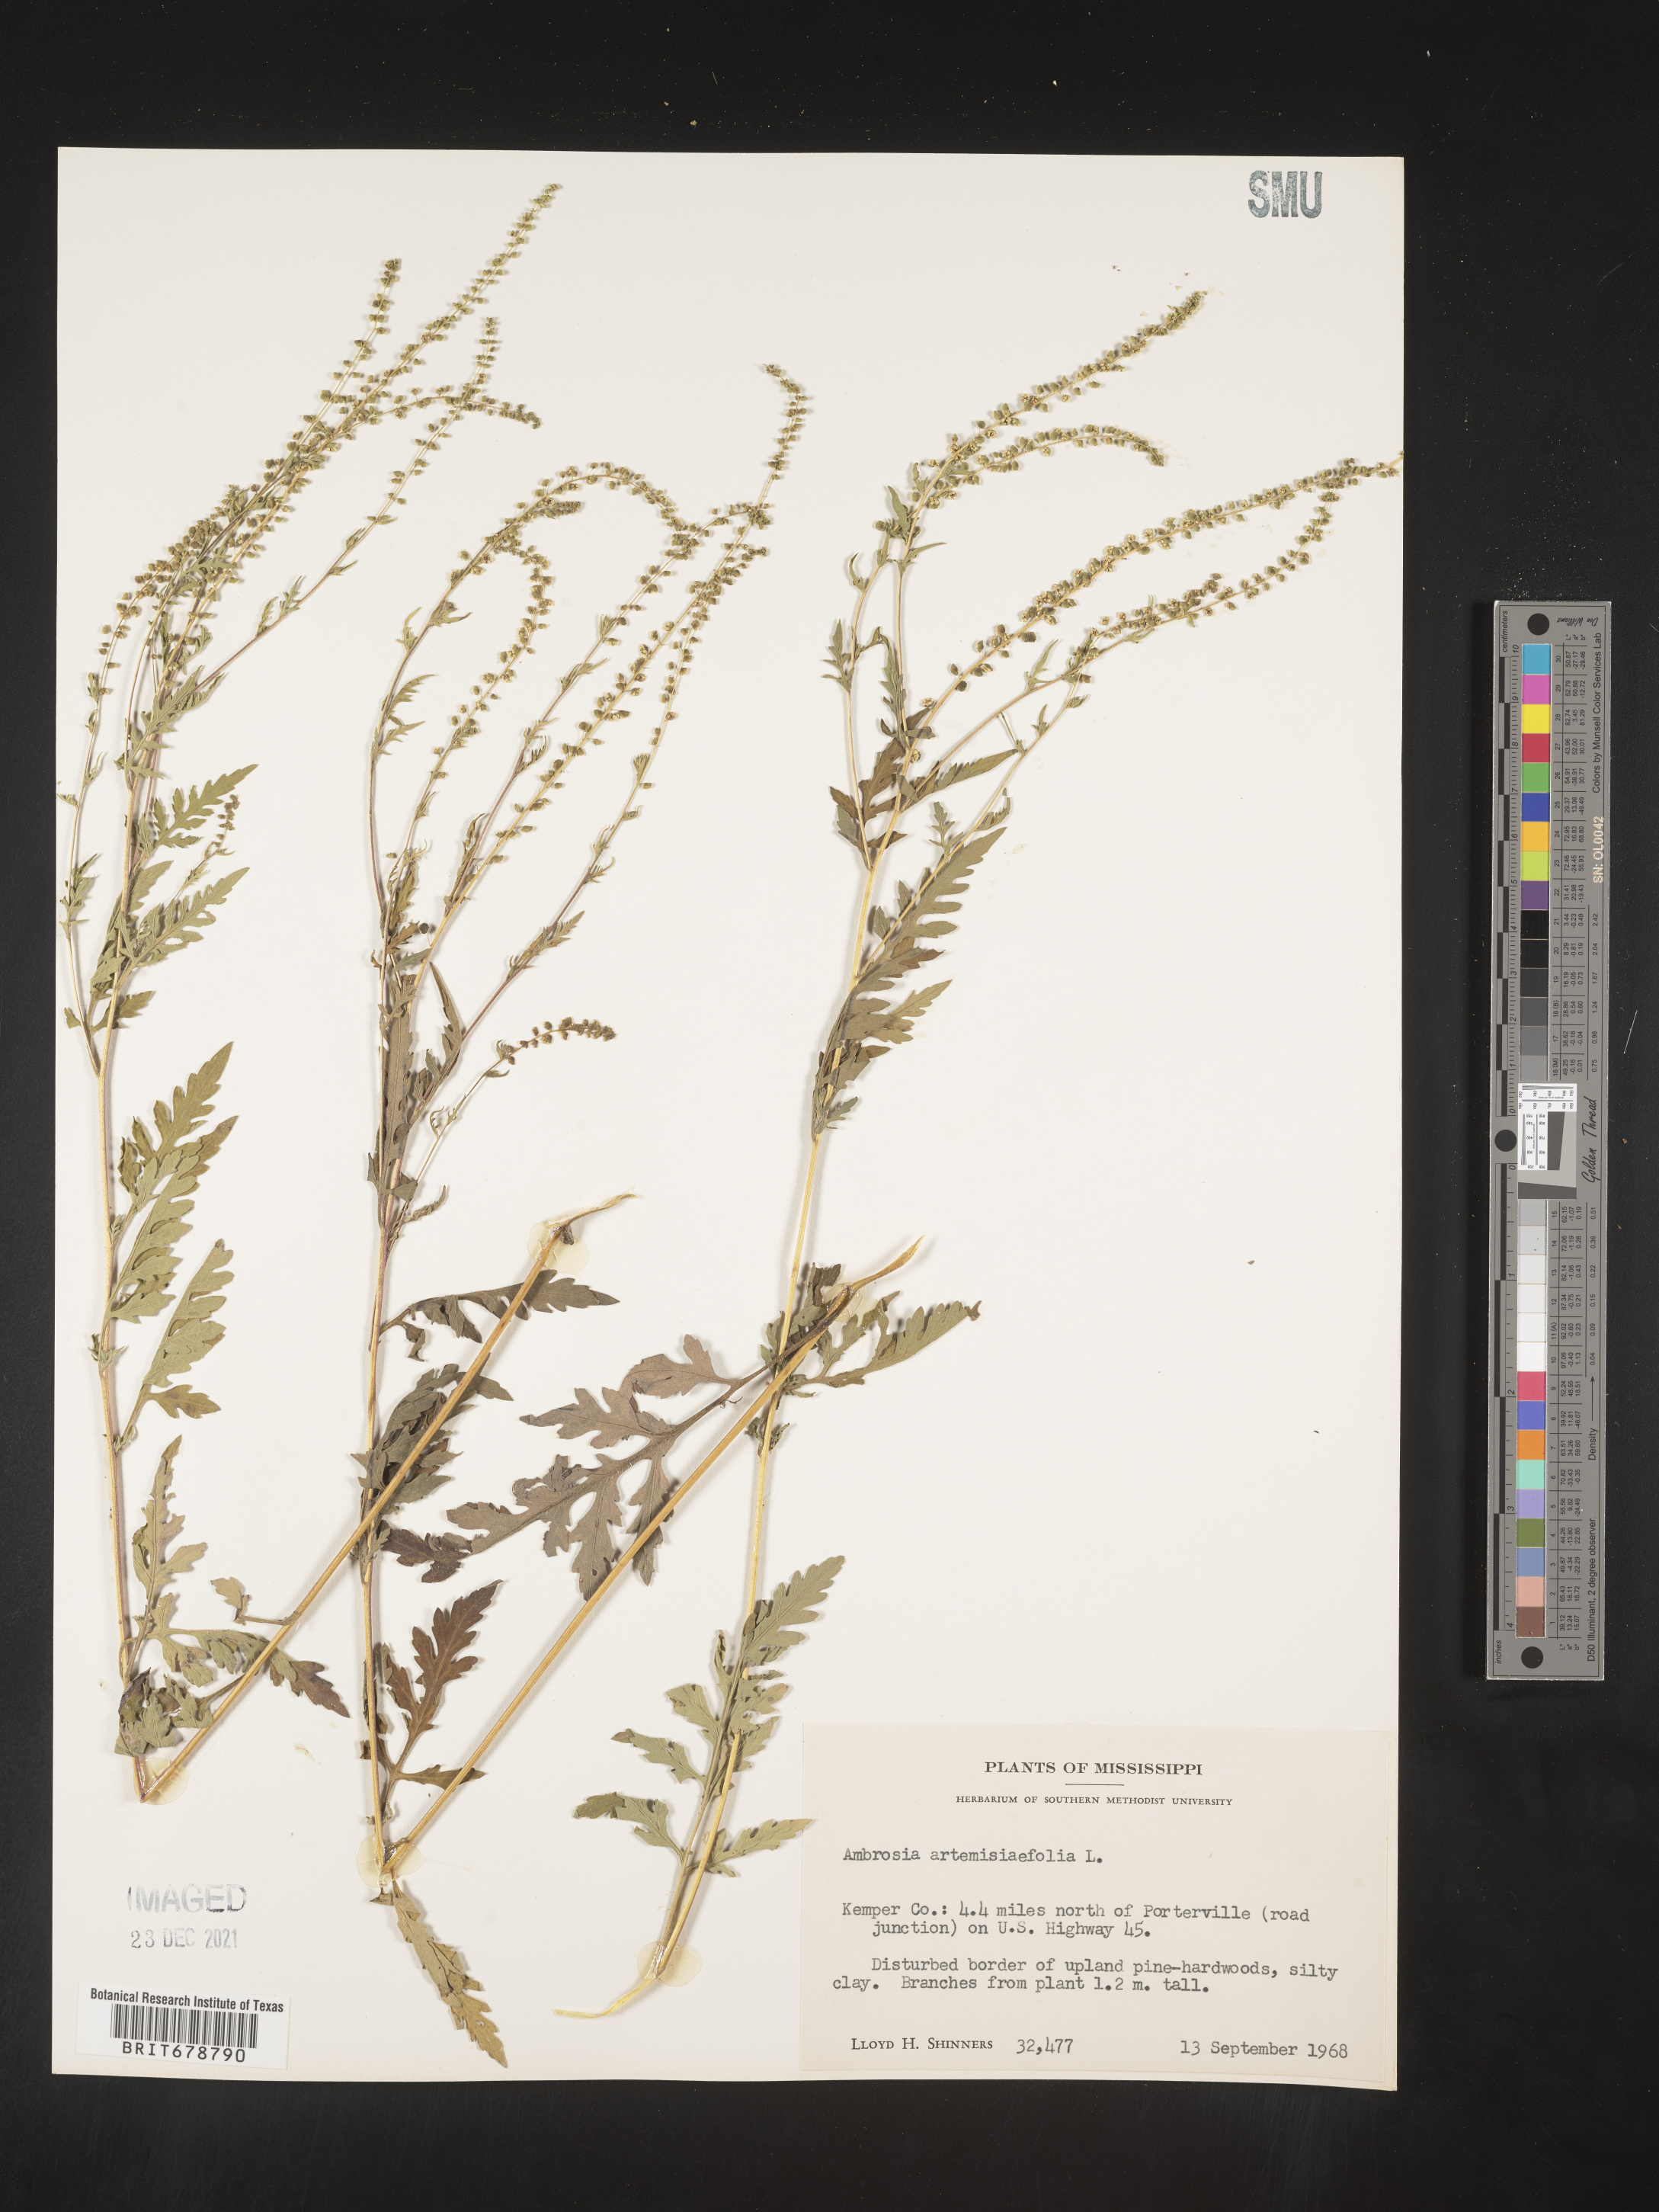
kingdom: Plantae
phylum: Tracheophyta
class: Magnoliopsida
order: Asterales
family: Asteraceae
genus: Ambrosia
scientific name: Ambrosia artemisiifolia
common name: Annual ragweed
